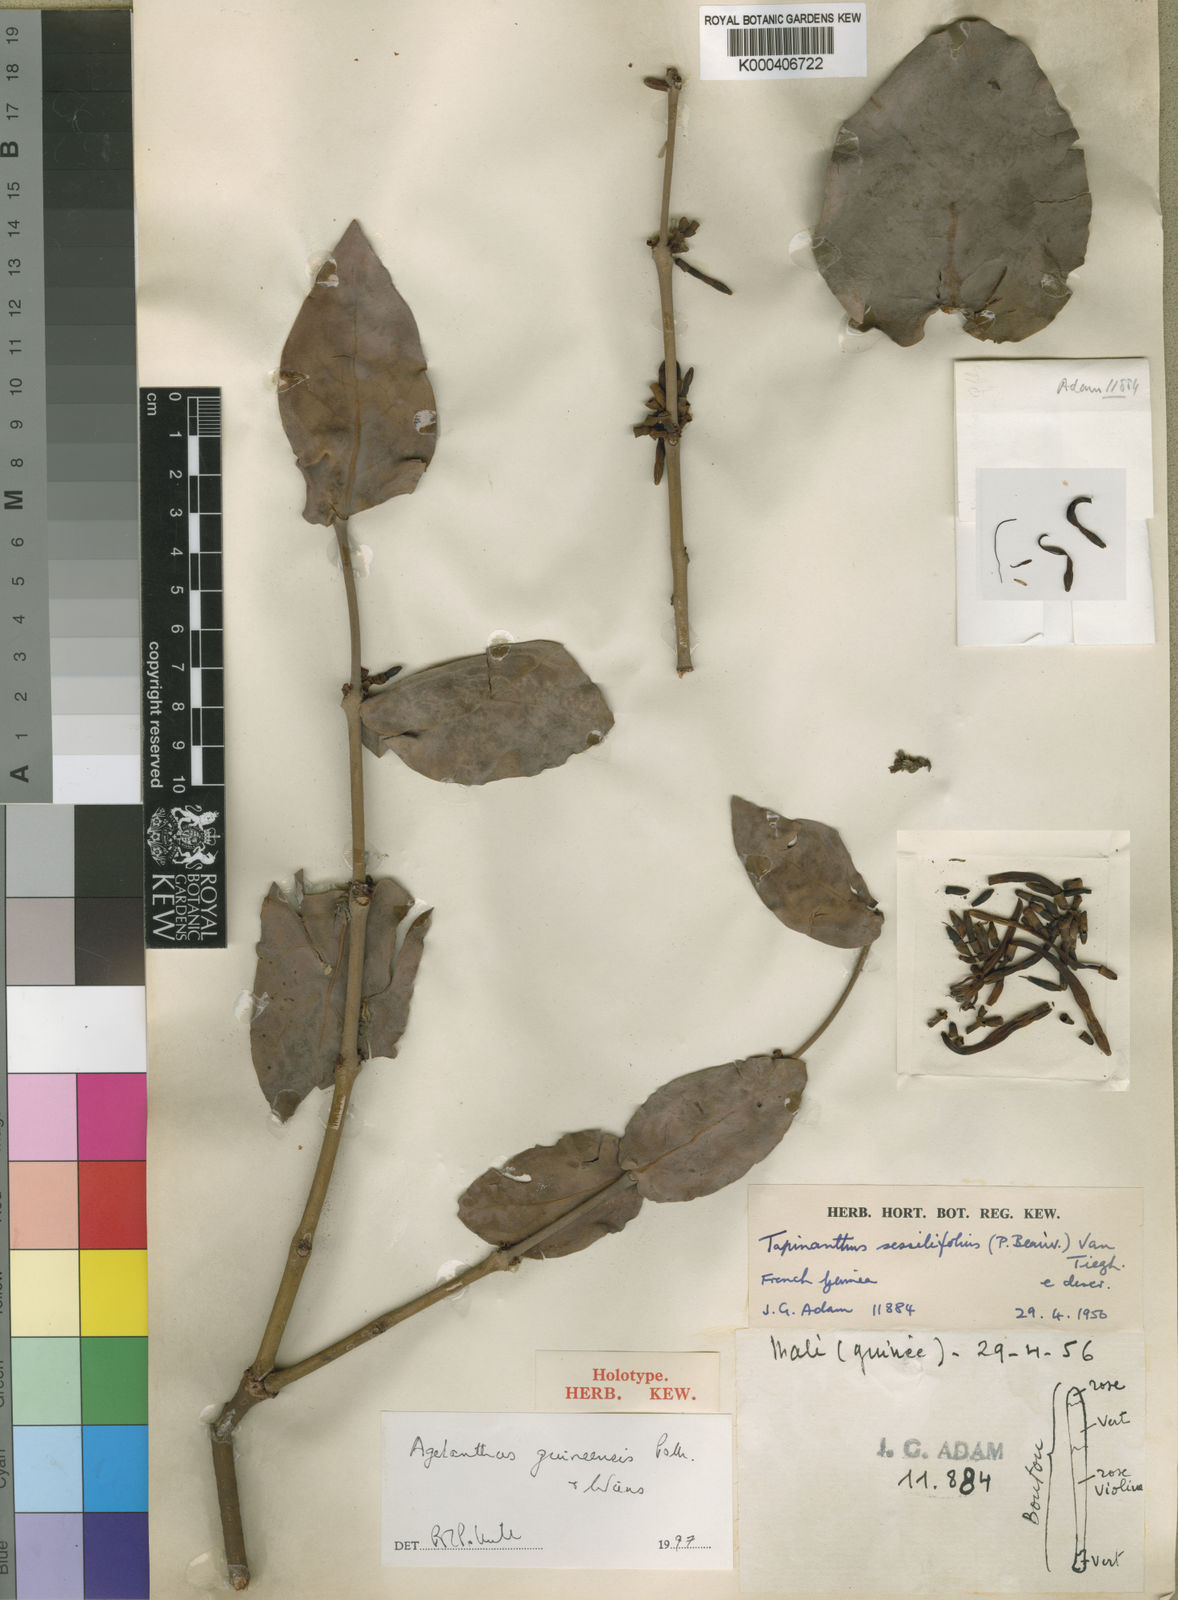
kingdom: Plantae
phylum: Tracheophyta
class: Magnoliopsida
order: Santalales
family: Loranthaceae
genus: Agelanthus
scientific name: Agelanthus guineensis
